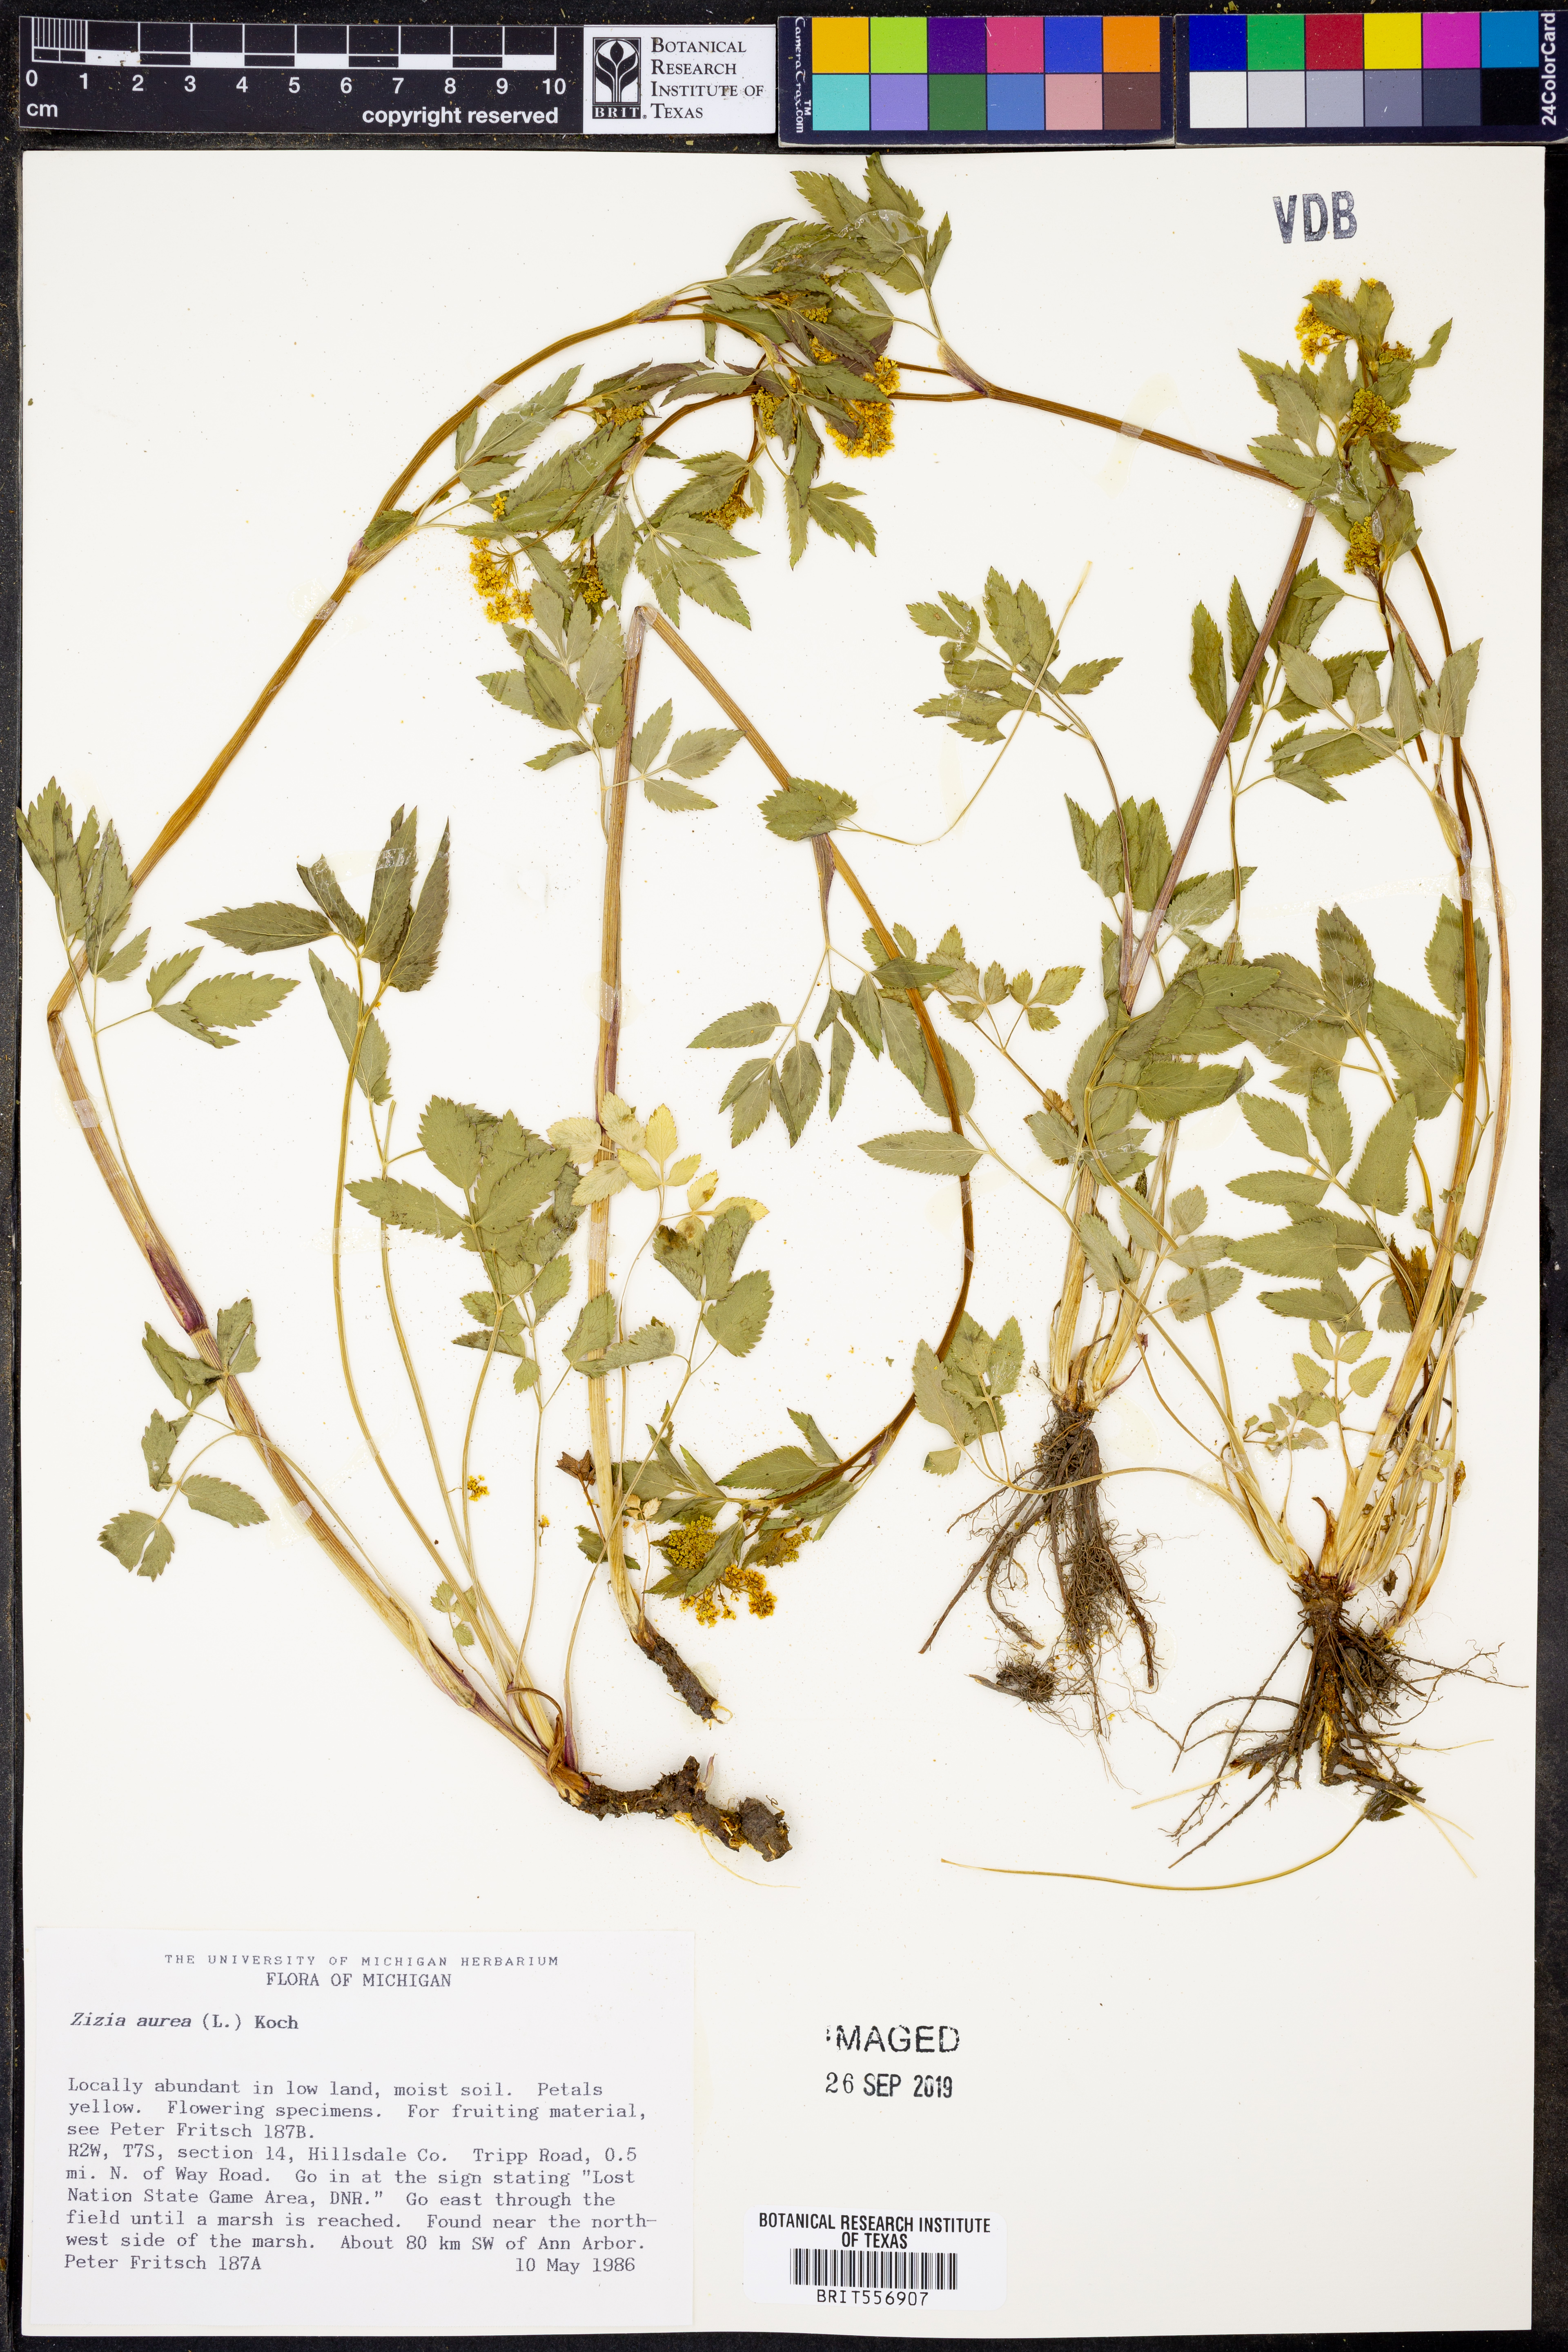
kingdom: Plantae
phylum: Tracheophyta
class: Magnoliopsida
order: Apiales
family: Apiaceae
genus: Zizia
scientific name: Zizia aurea
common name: Golden alexanders
